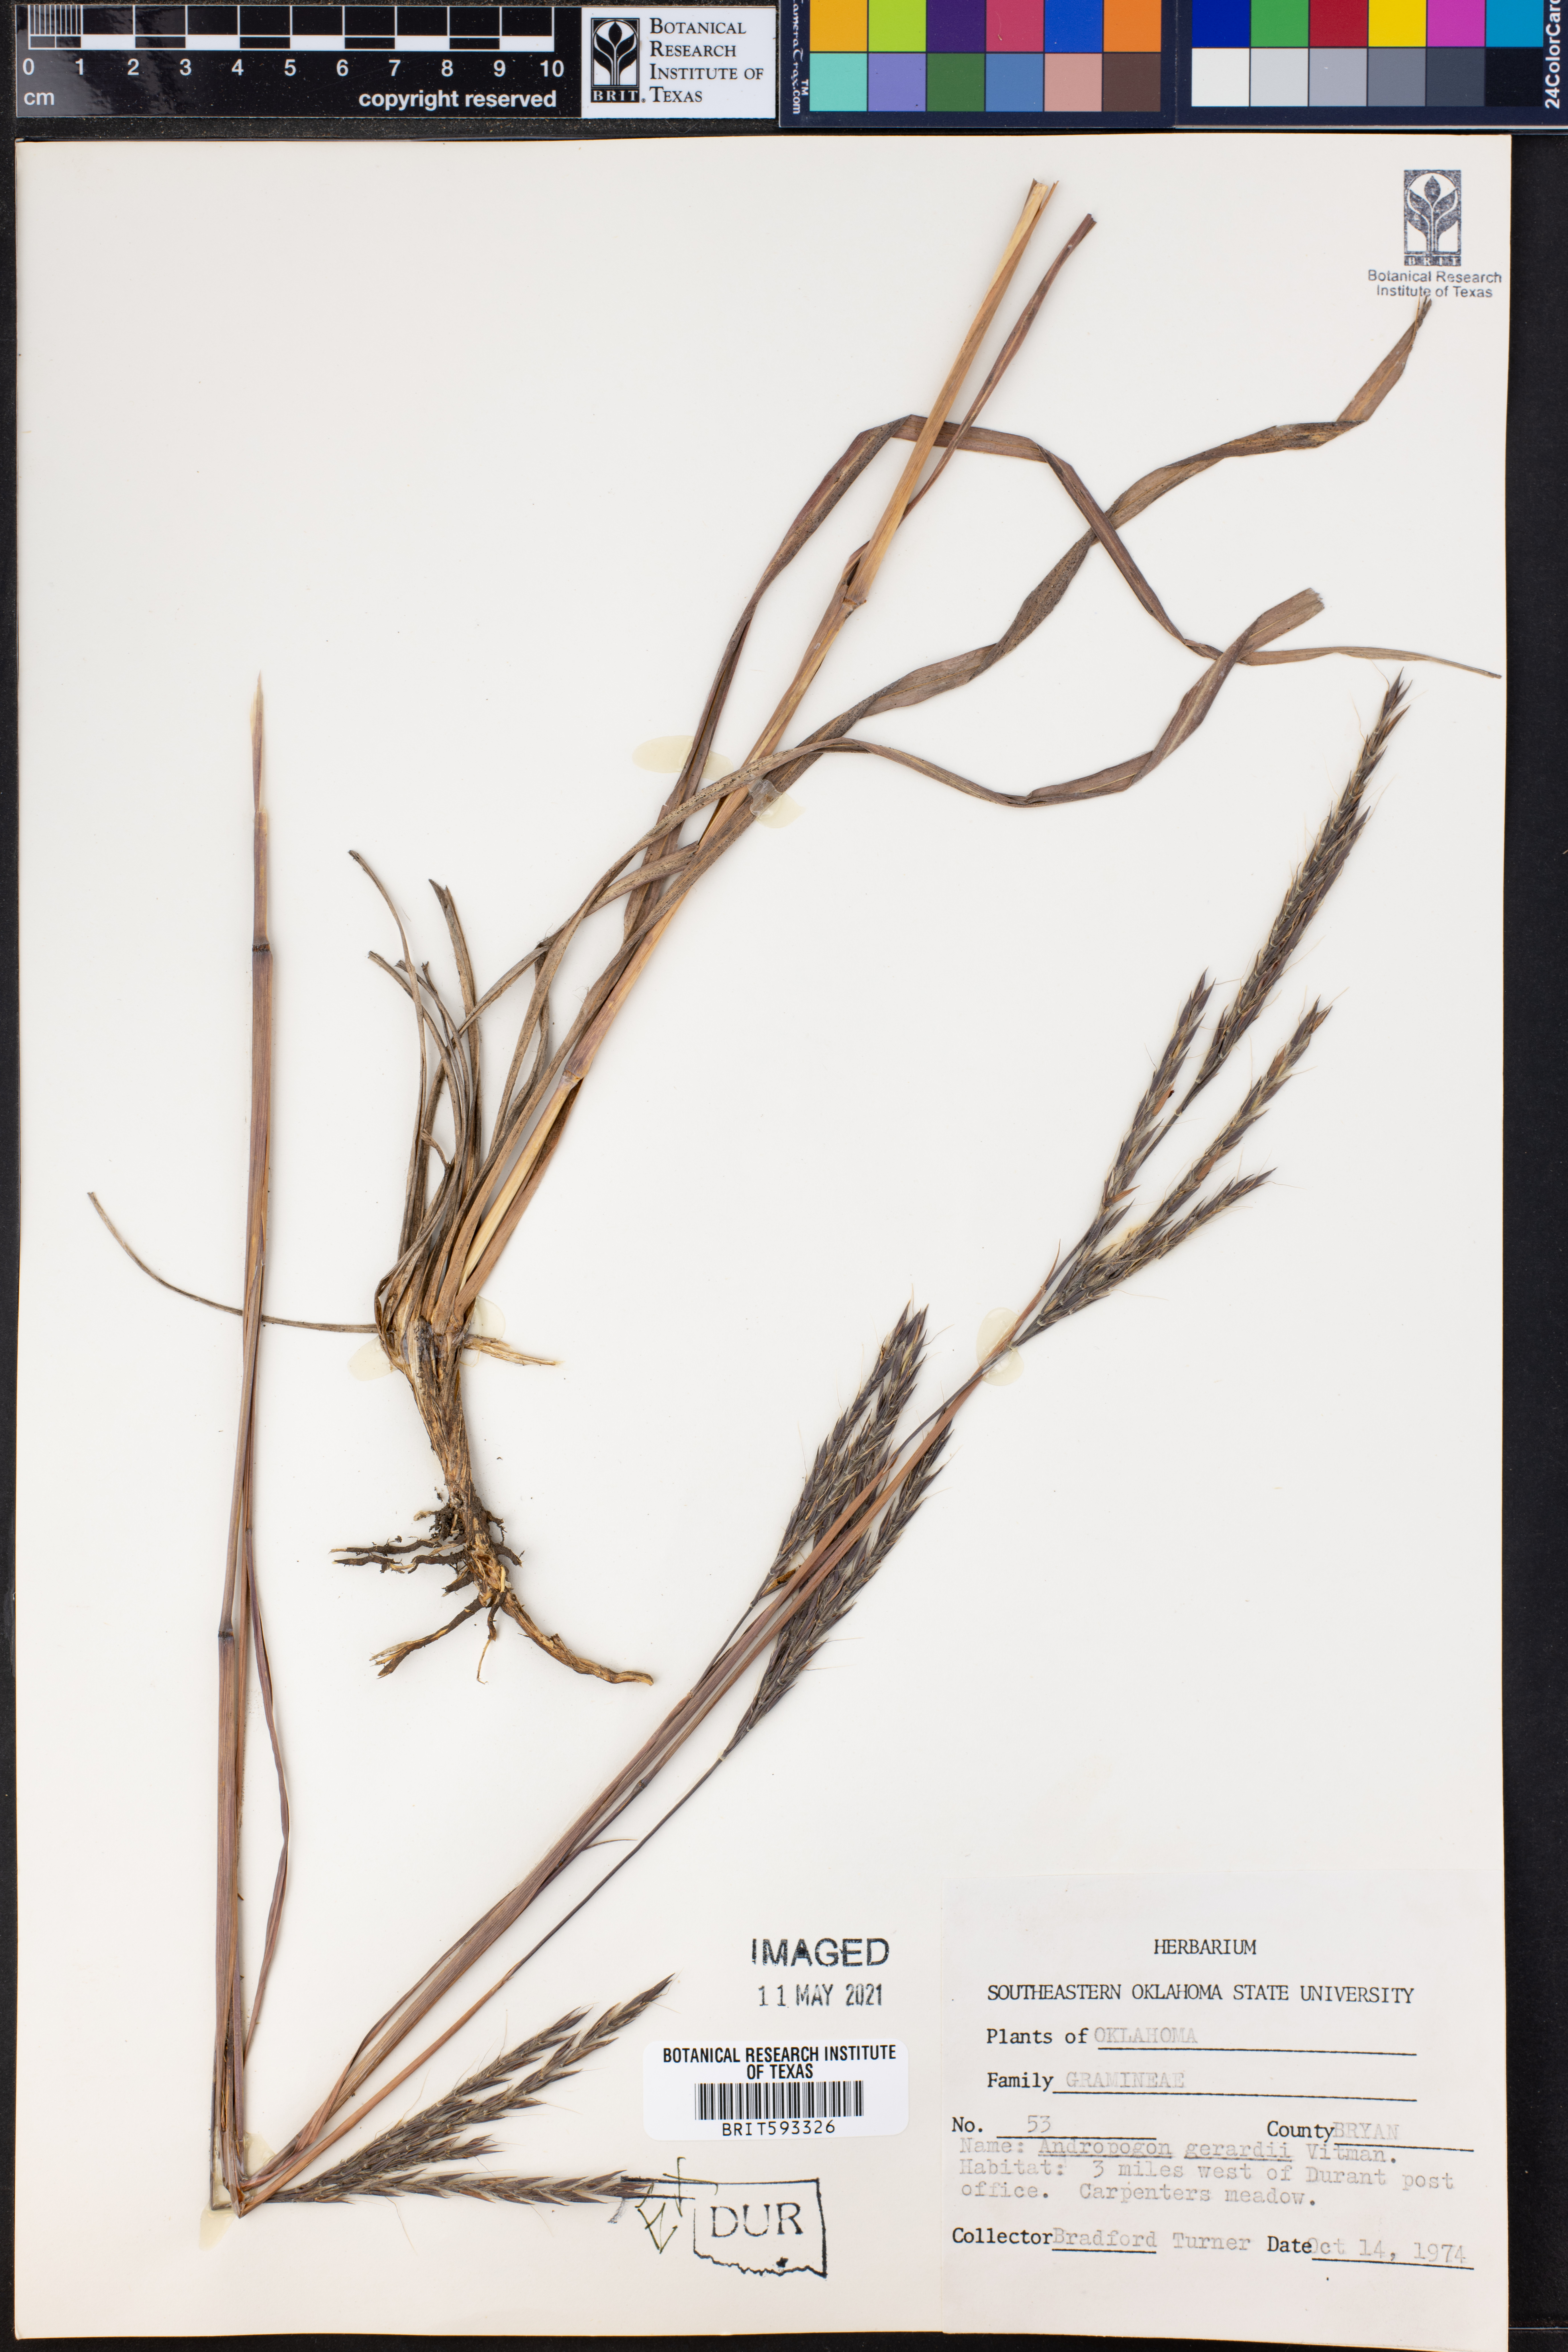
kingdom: Plantae
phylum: Tracheophyta
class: Liliopsida
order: Poales
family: Poaceae
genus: Andropogon
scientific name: Andropogon gerardi
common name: Big bluestem
